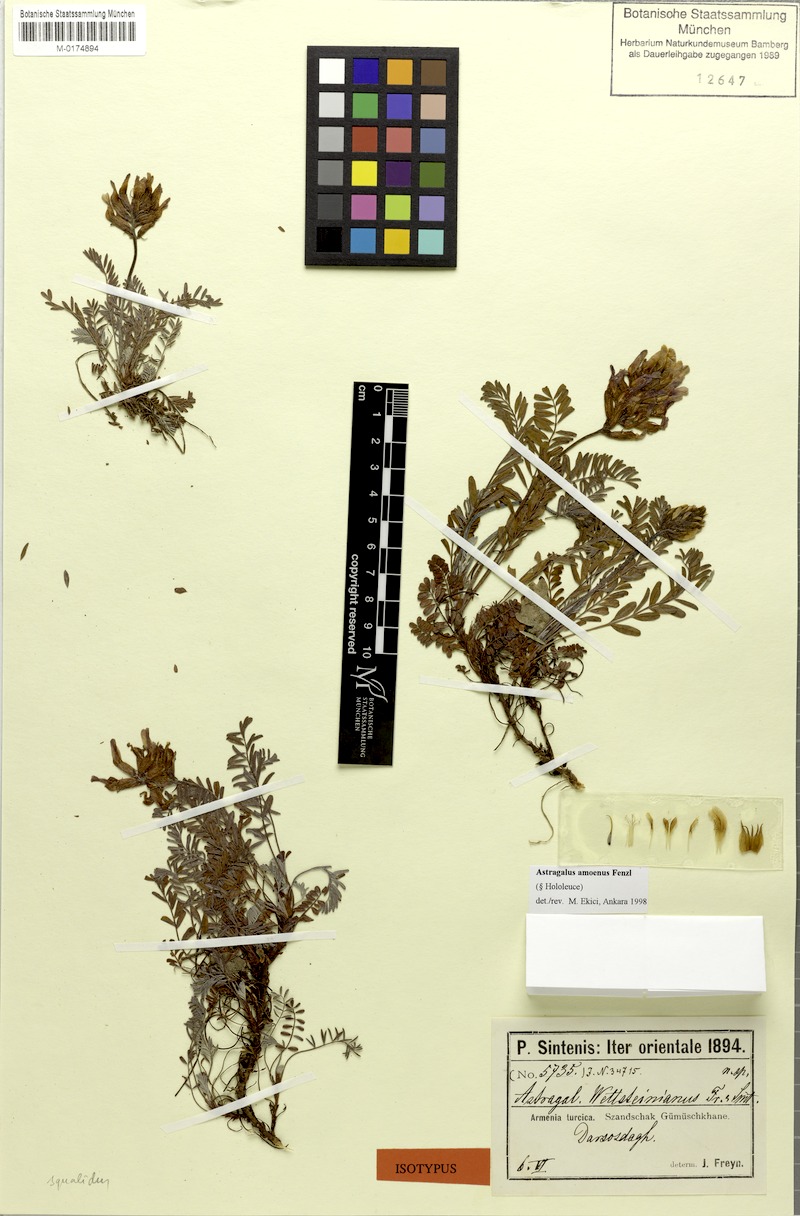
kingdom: Plantae
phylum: Tracheophyta
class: Magnoliopsida
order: Fabales
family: Fabaceae
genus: Astragalus
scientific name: Astragalus amoenus
